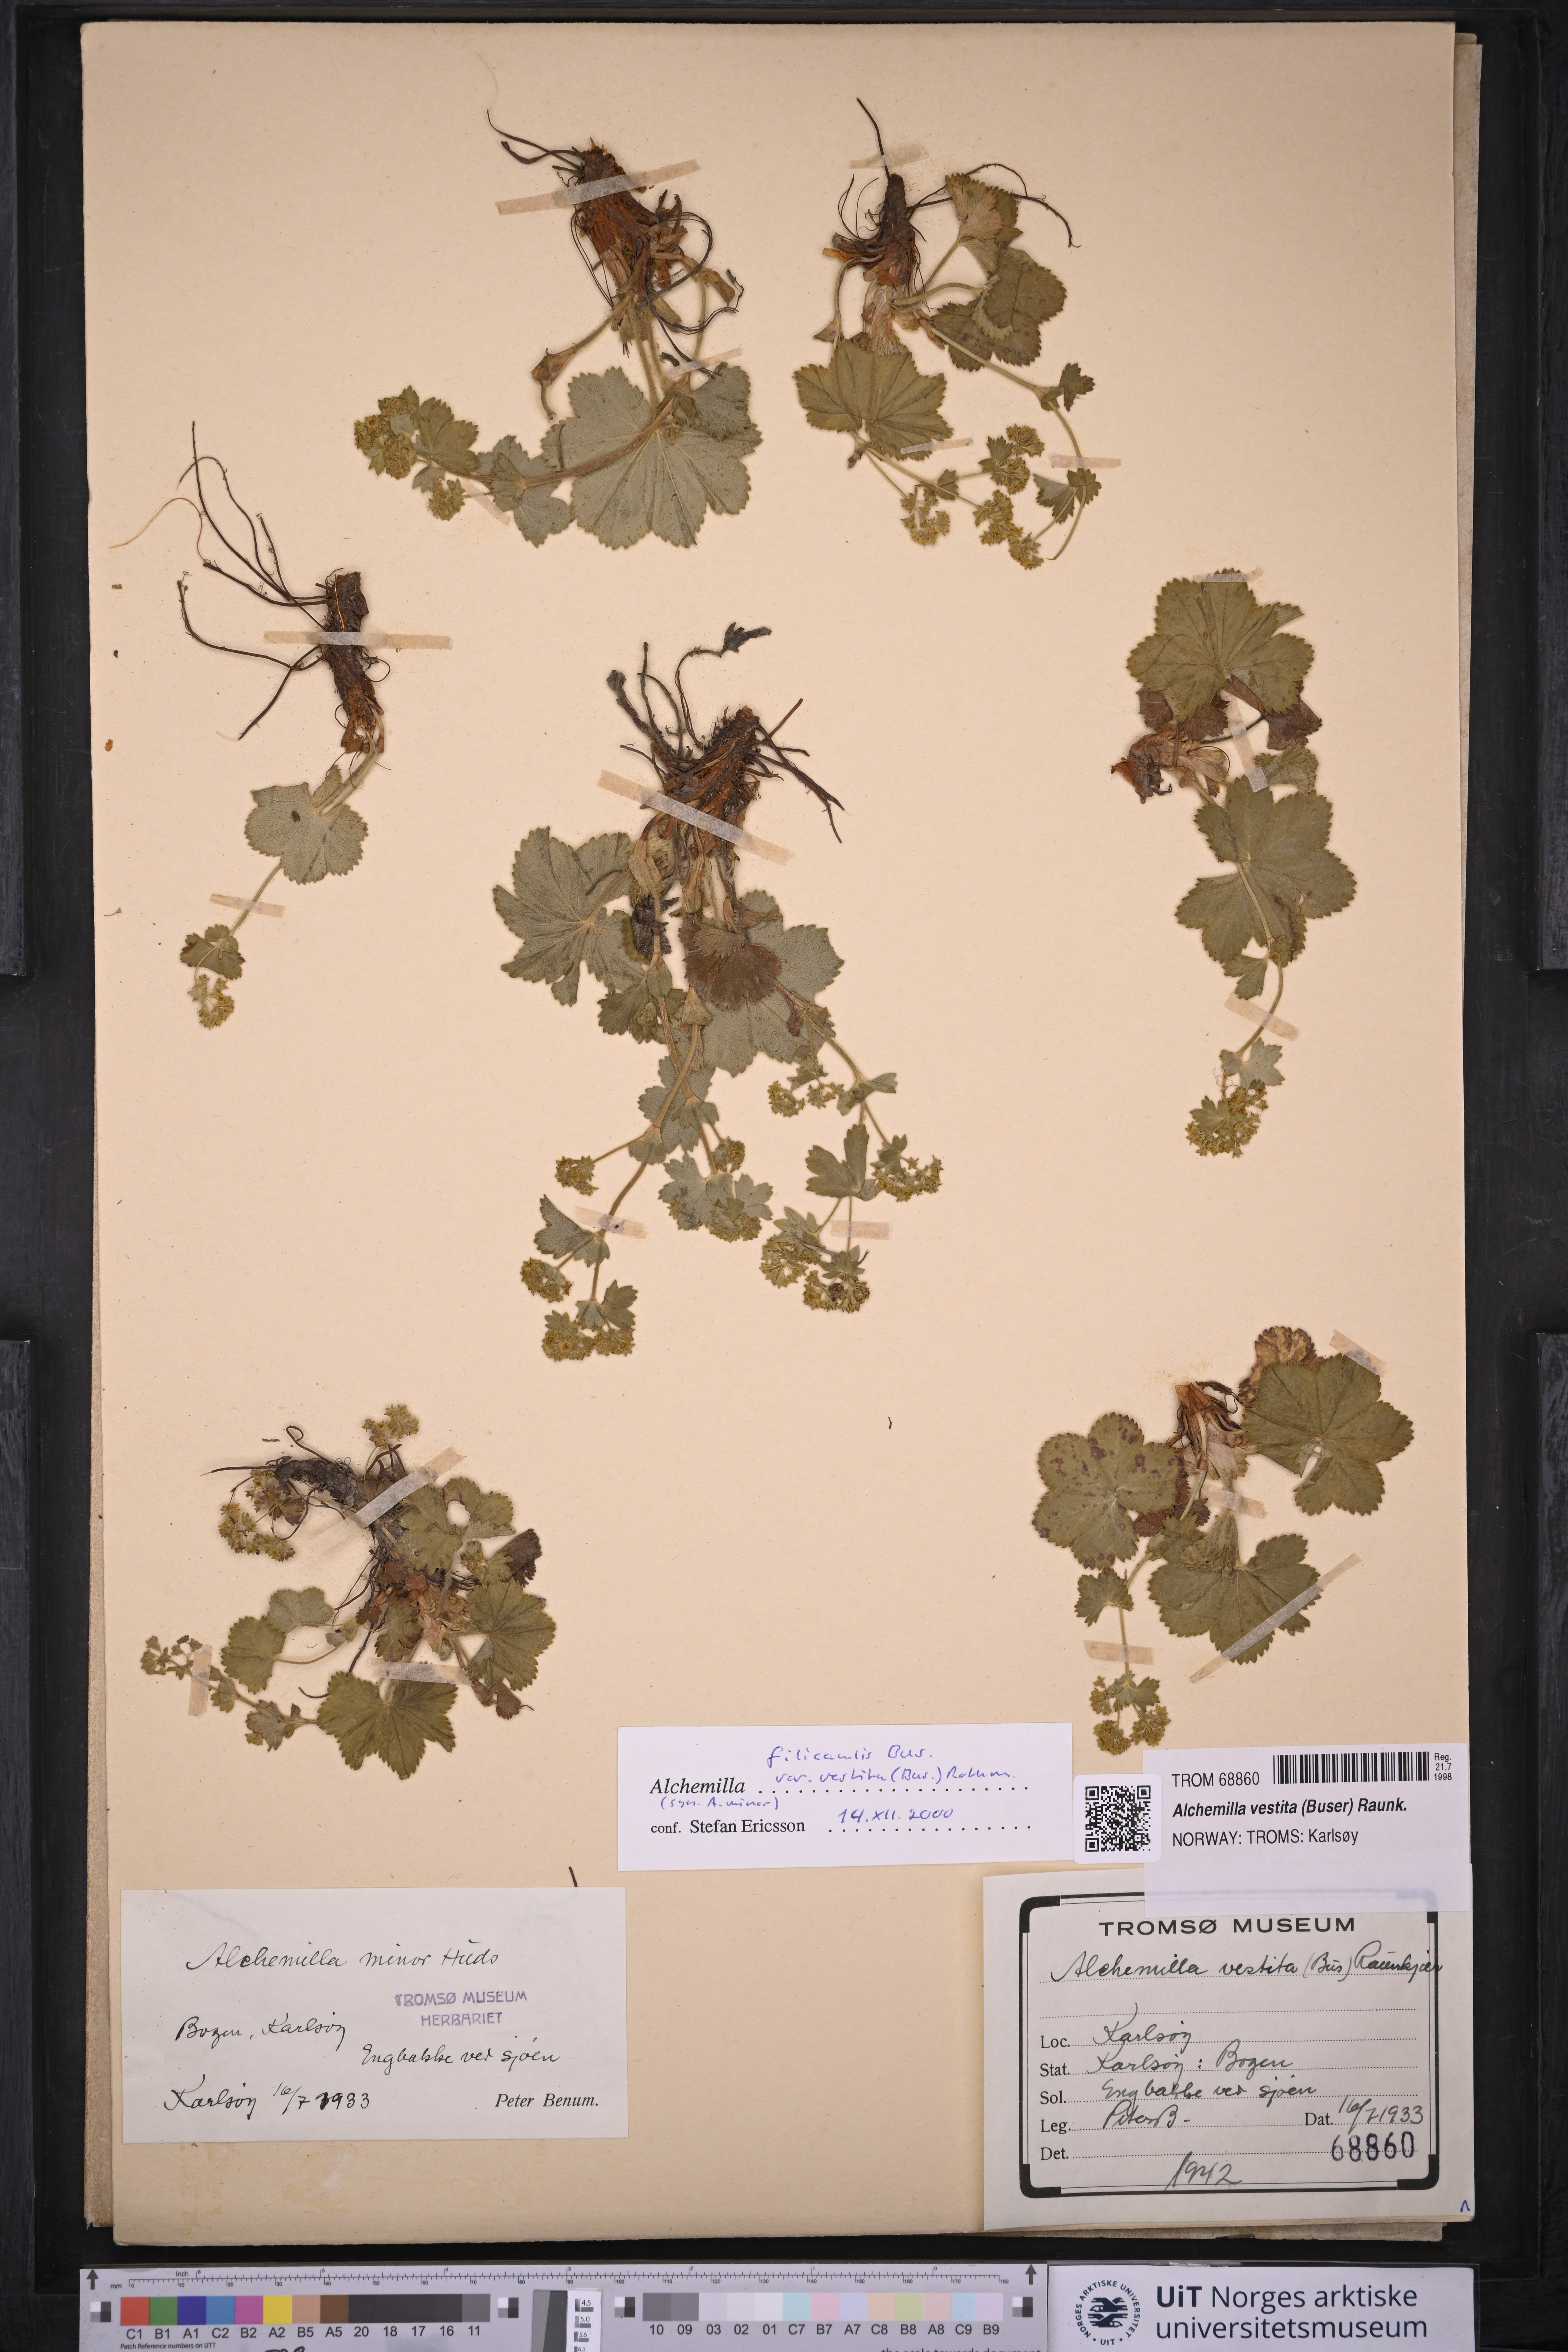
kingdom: Plantae
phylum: Tracheophyta
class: Magnoliopsida
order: Rosales
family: Rosaceae
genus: Alchemilla
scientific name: Alchemilla filicaulis
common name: Hairy lady's-mantle
